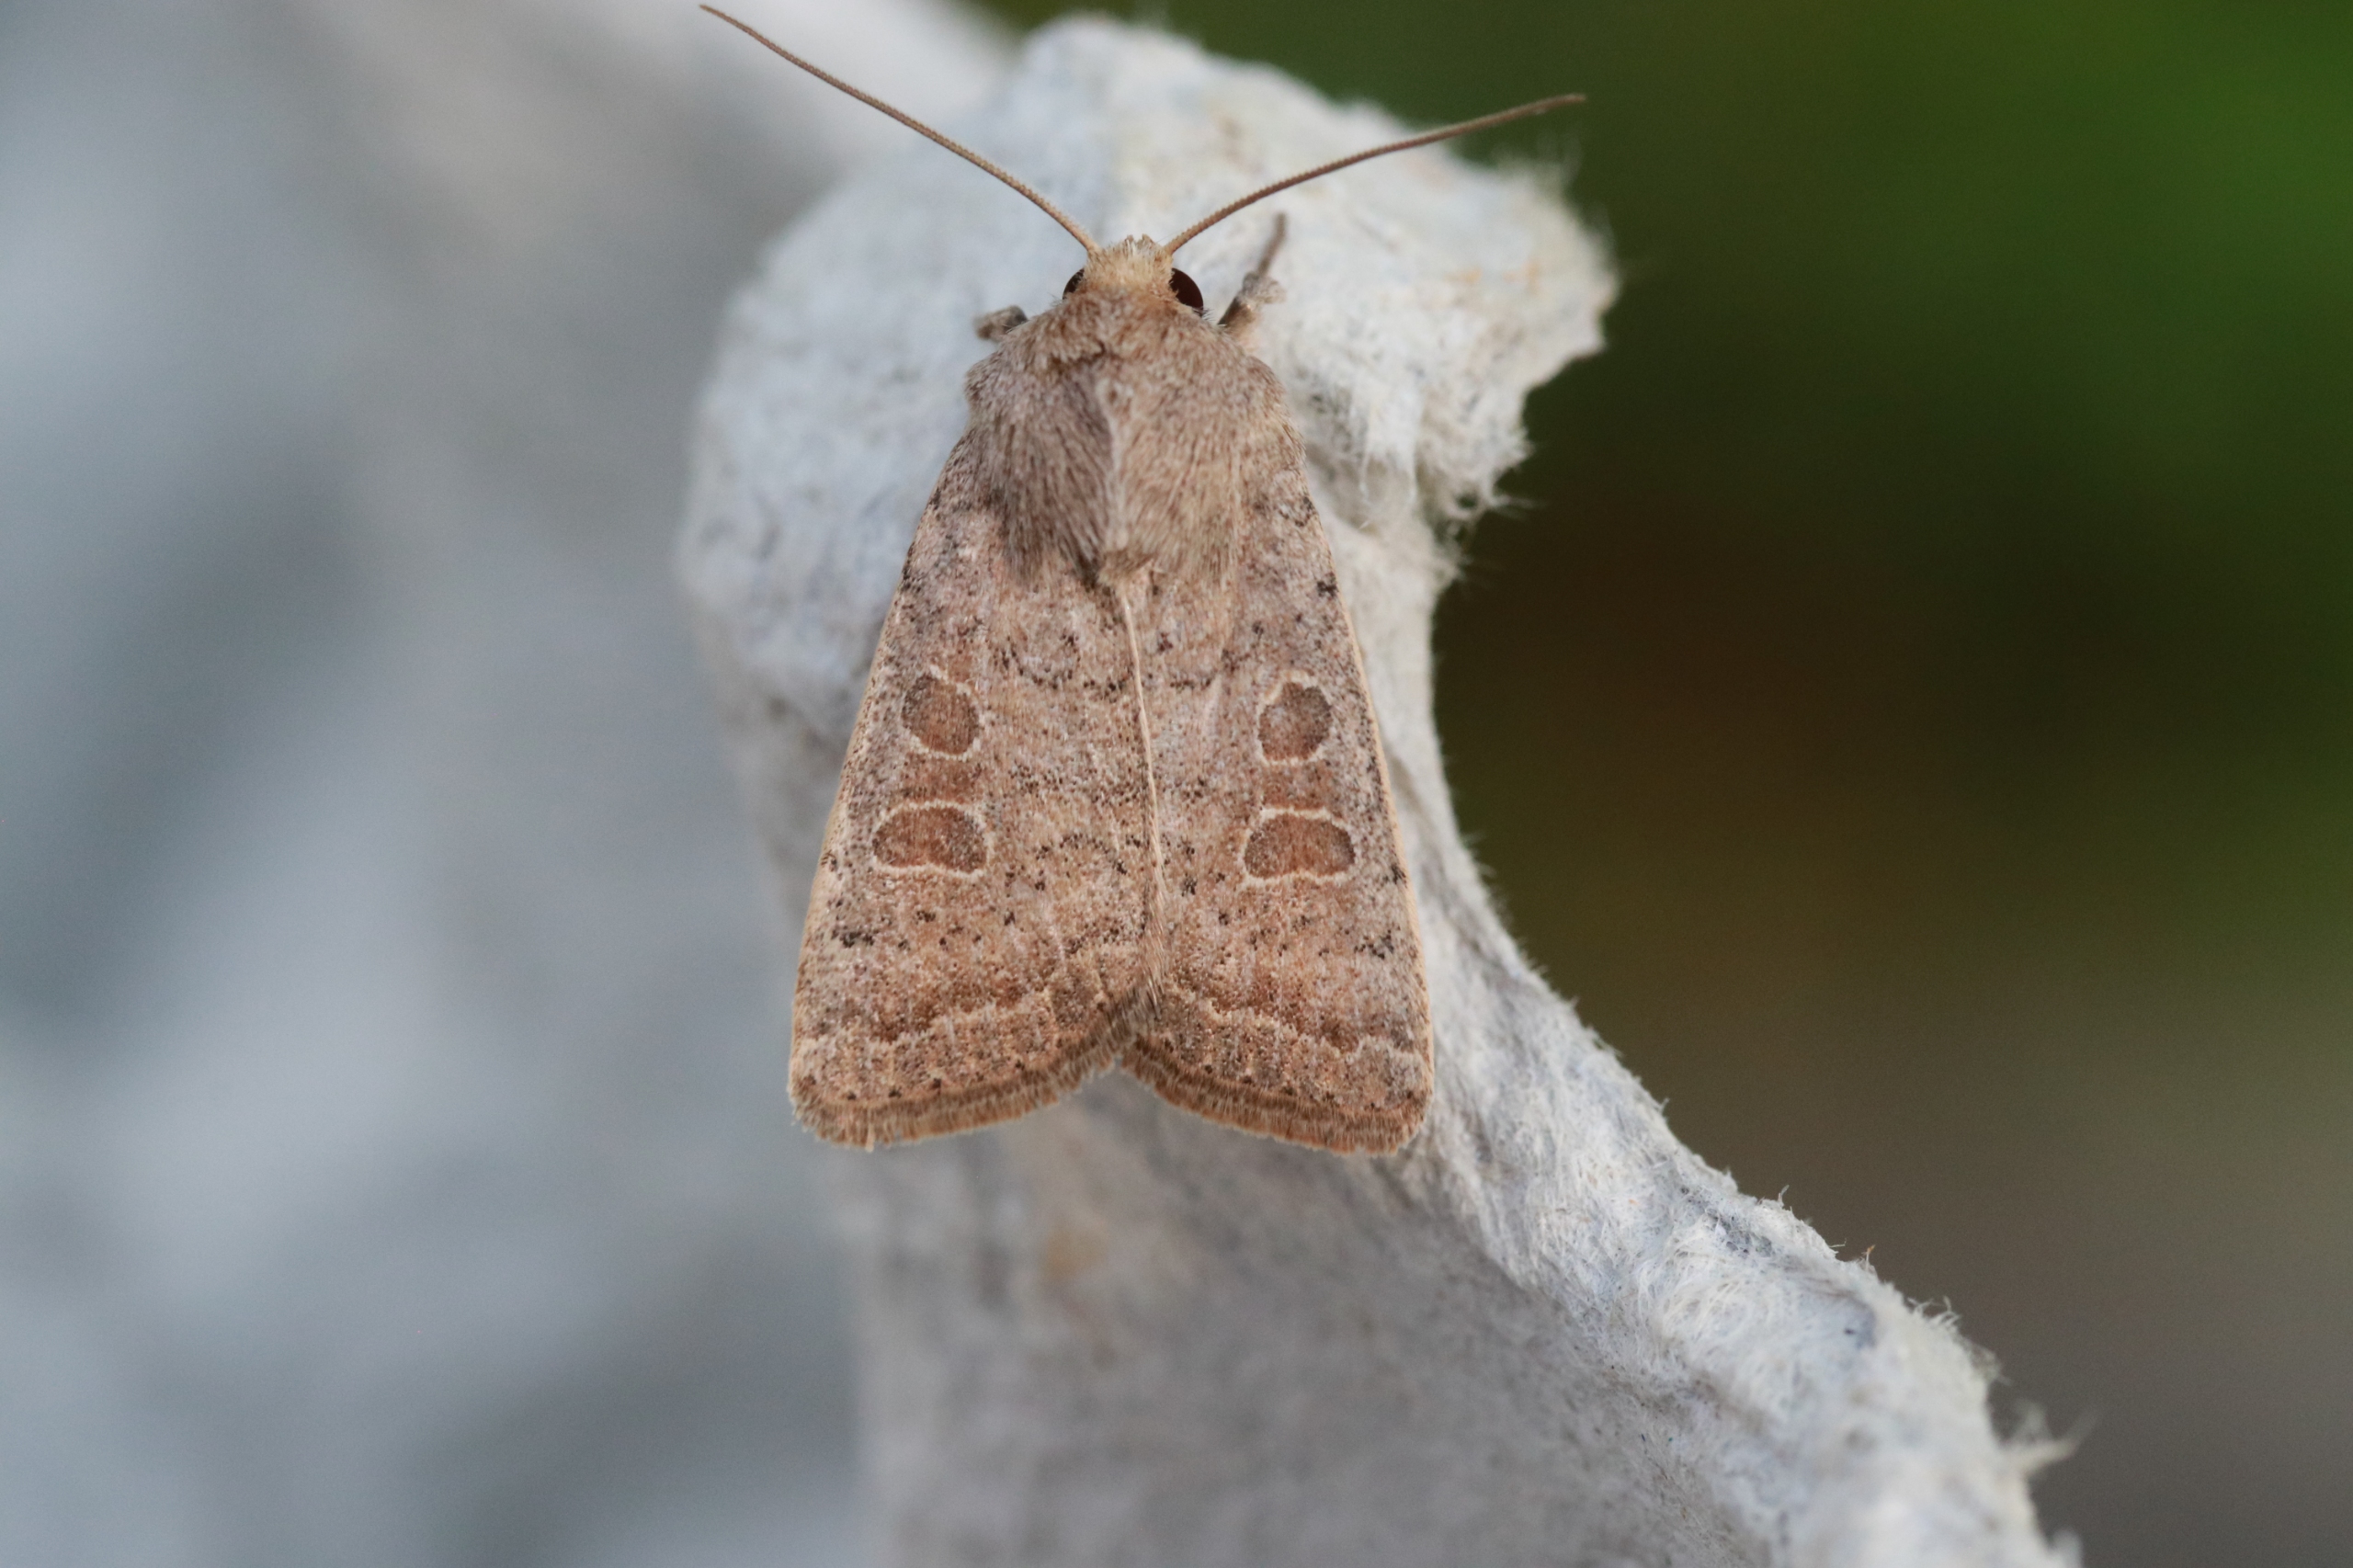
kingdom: Animalia
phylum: Arthropoda
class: Insecta
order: Lepidoptera
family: Noctuidae
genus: Hoplodrina
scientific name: Hoplodrina ambigua
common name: Tvivlsom mus
